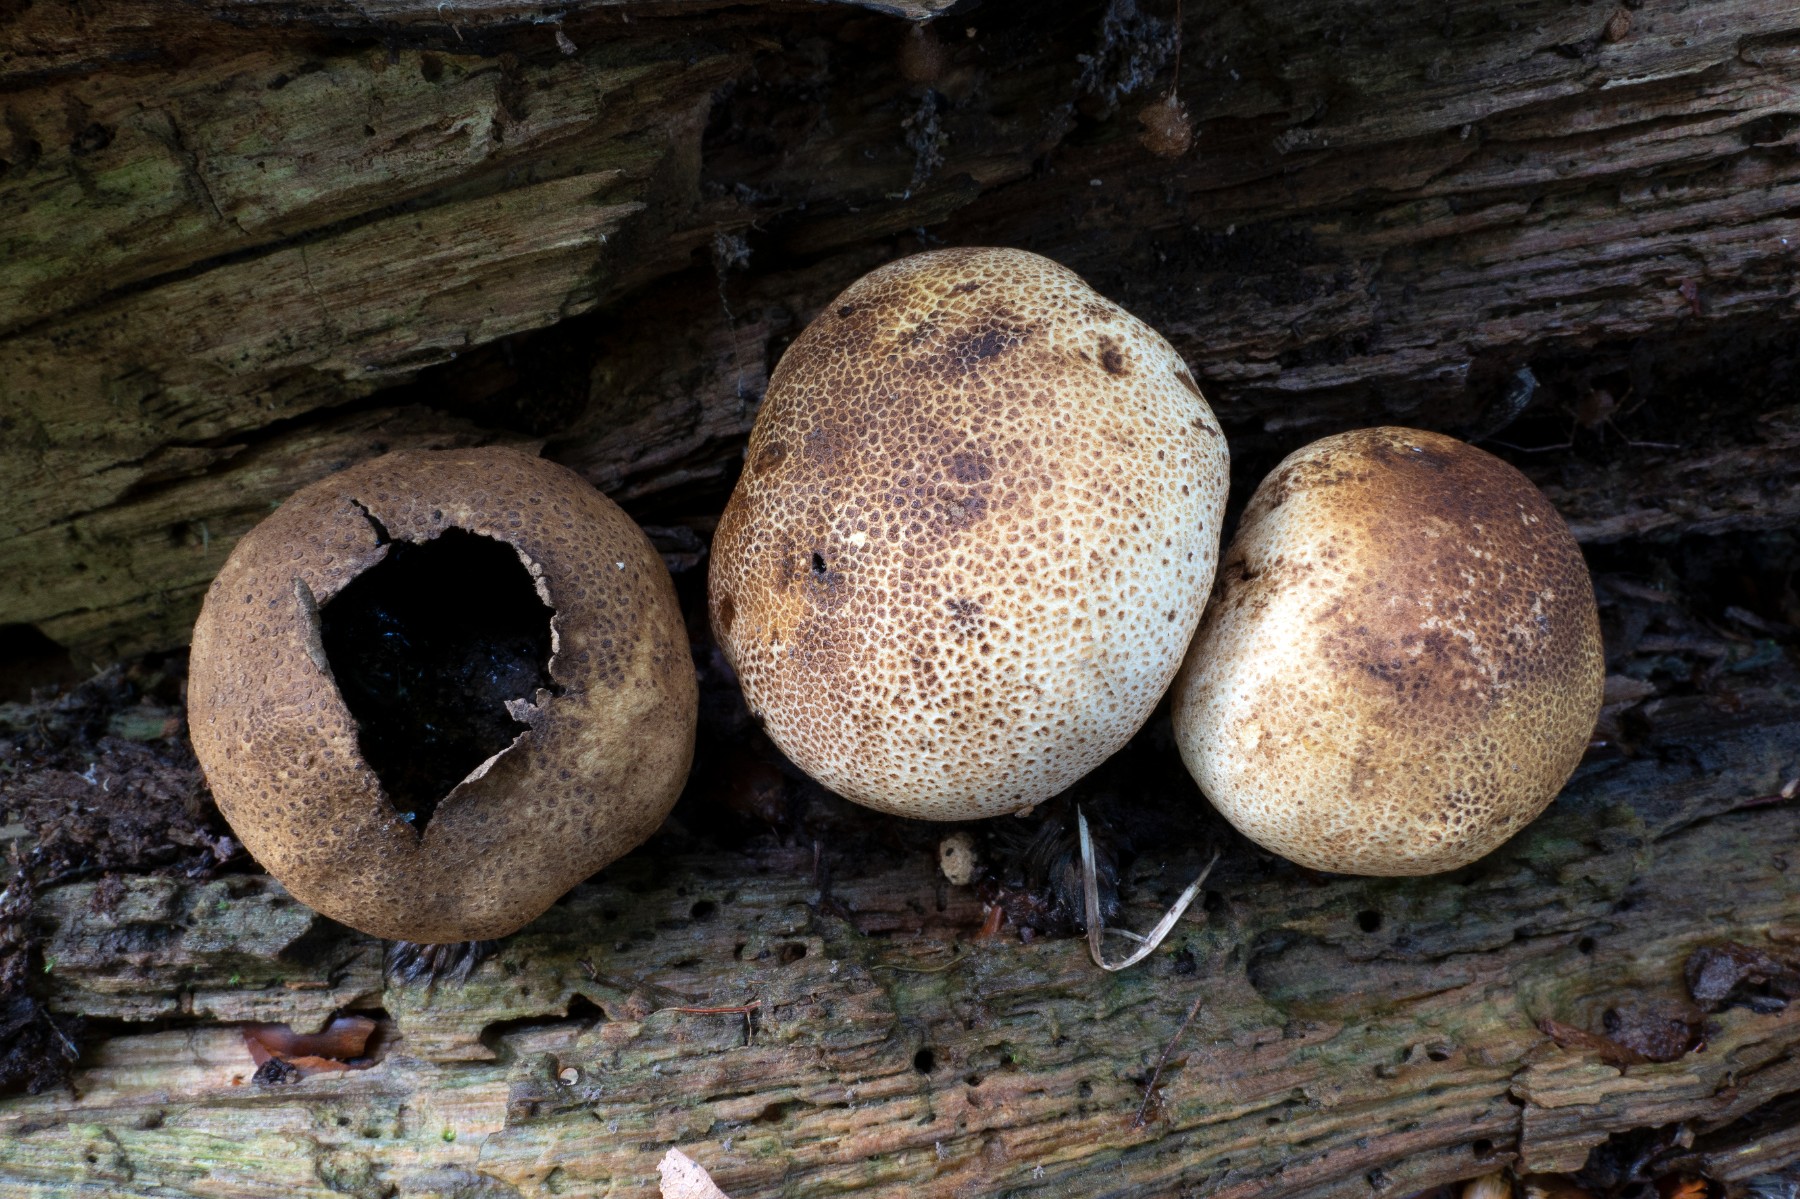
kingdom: Fungi
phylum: Basidiomycota
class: Agaricomycetes
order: Boletales
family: Sclerodermataceae
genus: Scleroderma
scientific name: Scleroderma areolatum
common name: plettet bruskbold
